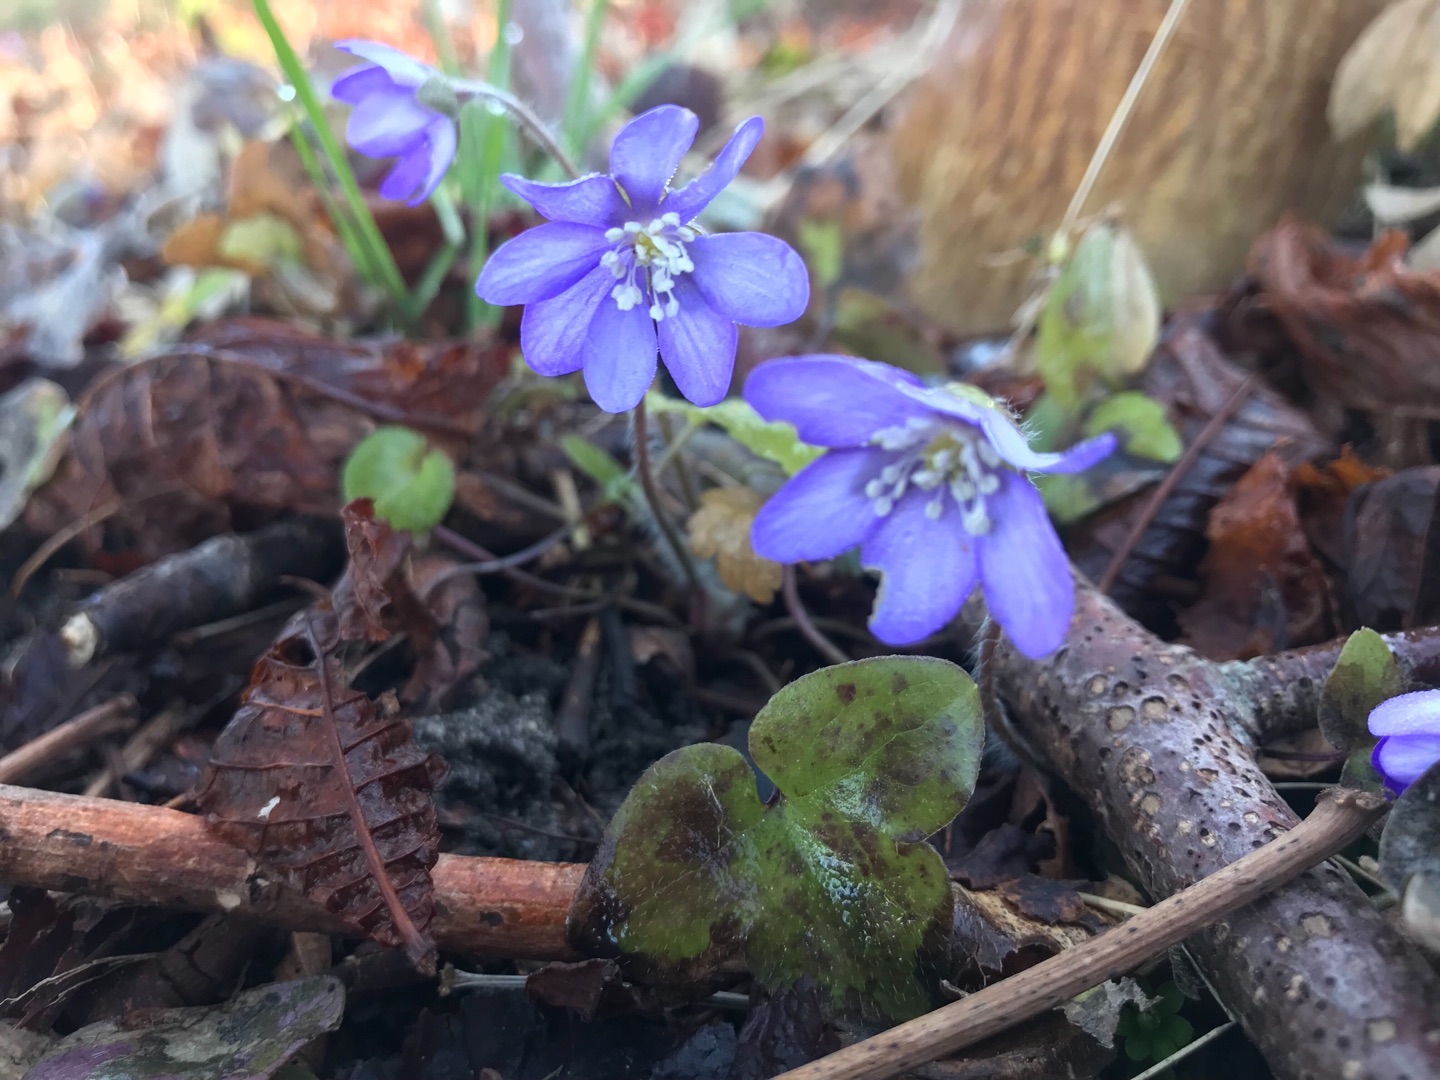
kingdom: Plantae
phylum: Tracheophyta
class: Magnoliopsida
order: Ranunculales
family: Ranunculaceae
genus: Hepatica
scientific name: Hepatica nobilis
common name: Blå anemone
